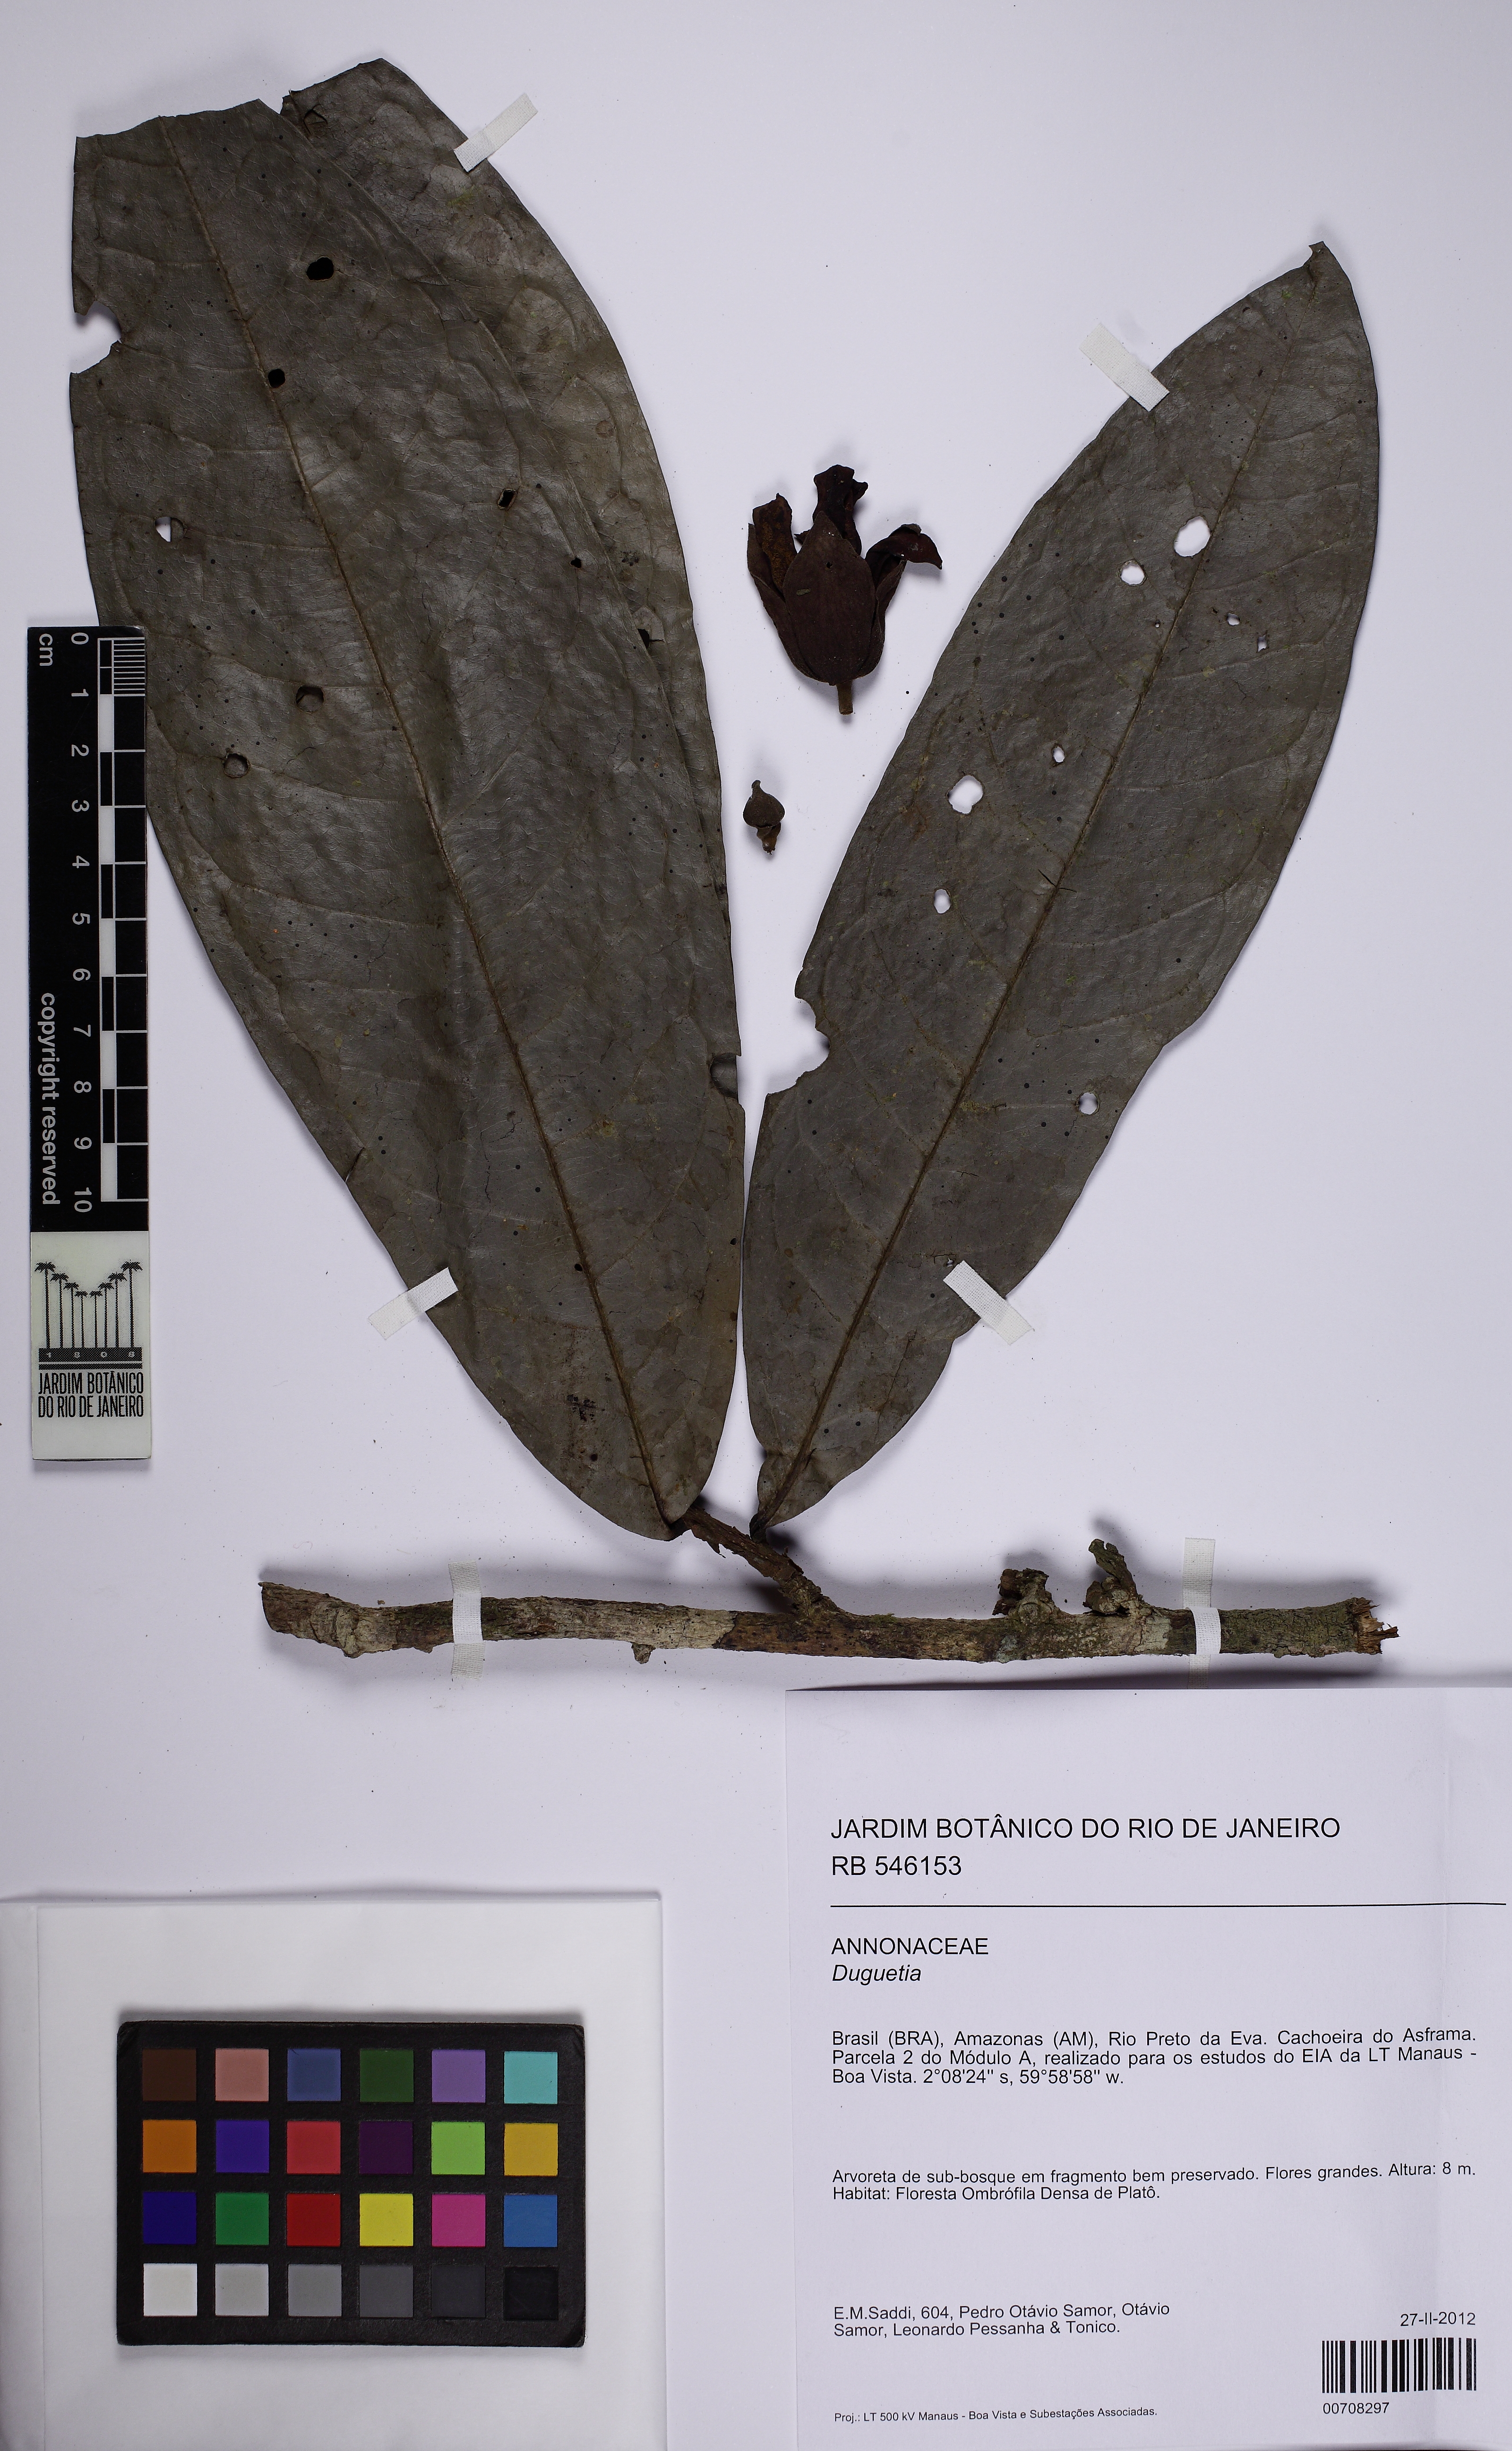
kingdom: Plantae
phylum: Tracheophyta
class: Magnoliopsida
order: Magnoliales
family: Annonaceae
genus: Duguetia
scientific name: Duguetia
